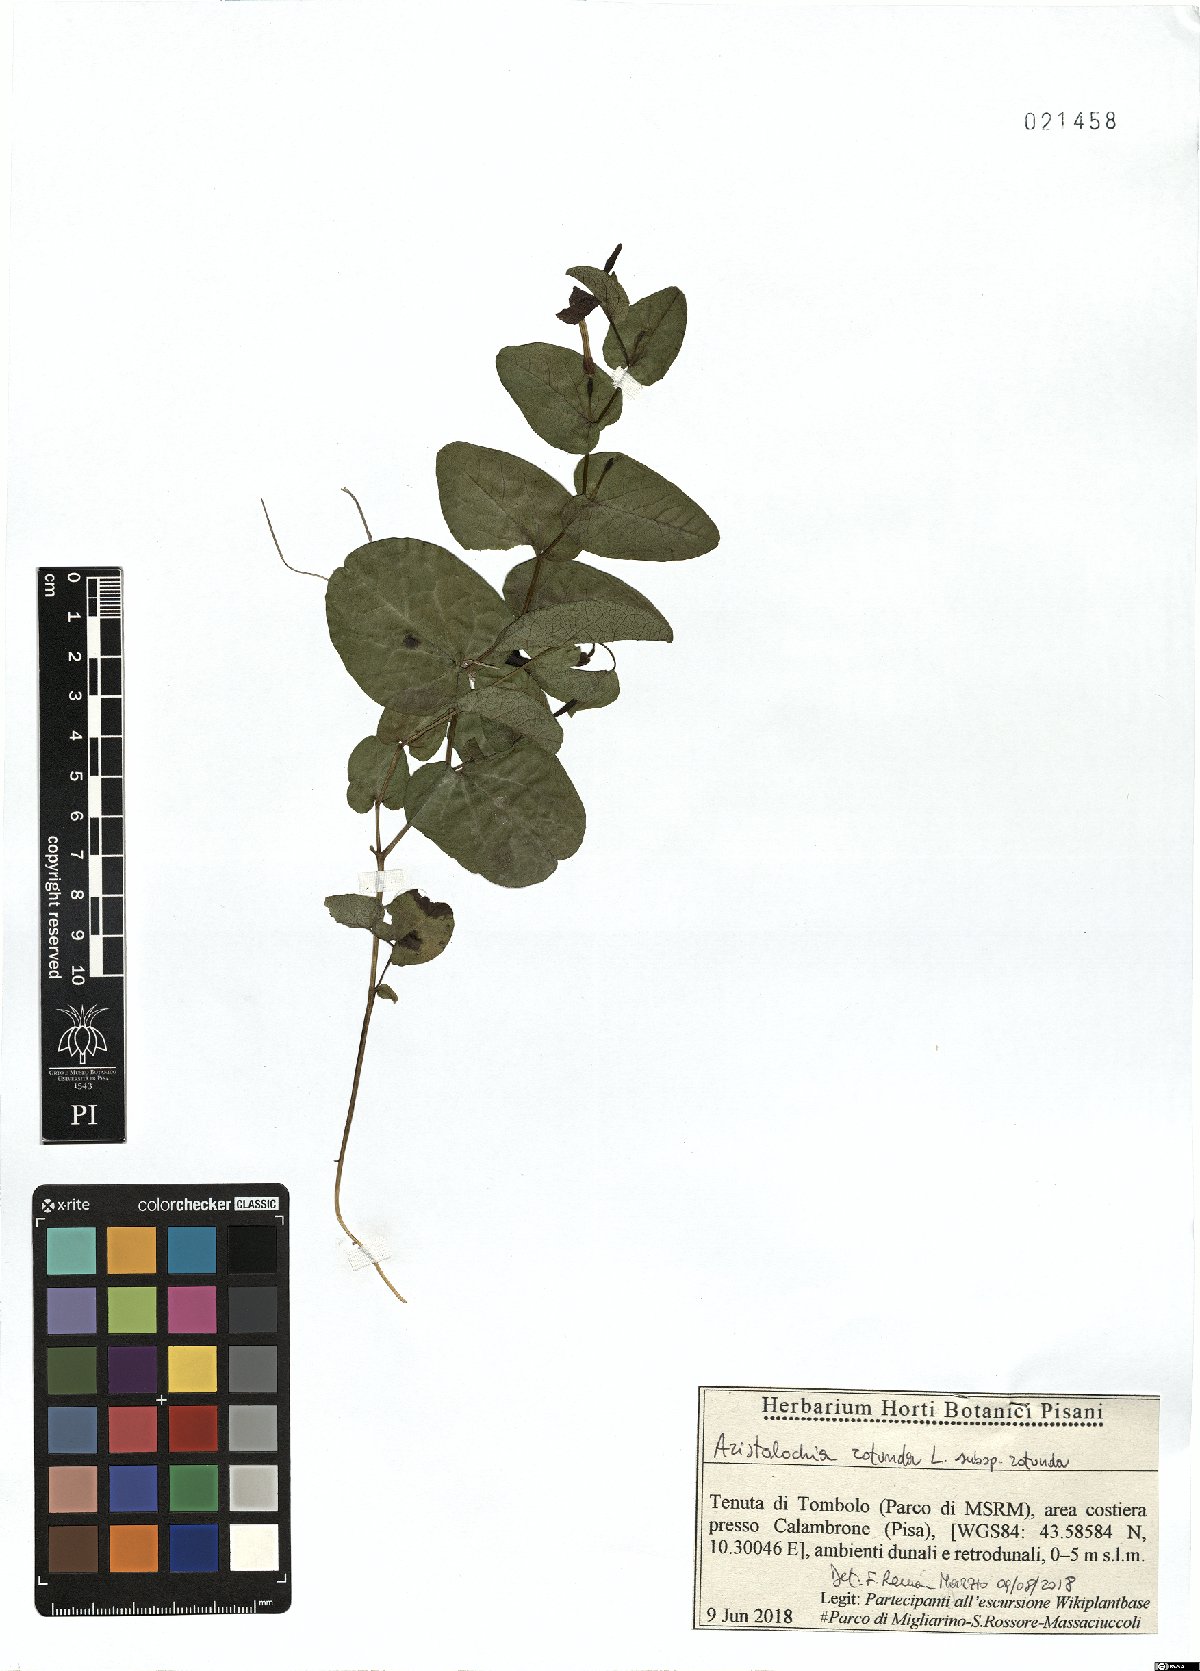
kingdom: Plantae
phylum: Tracheophyta
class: Magnoliopsida
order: Piperales
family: Aristolochiaceae
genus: Aristolochia
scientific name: Aristolochia clematitis
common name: Birthwort
